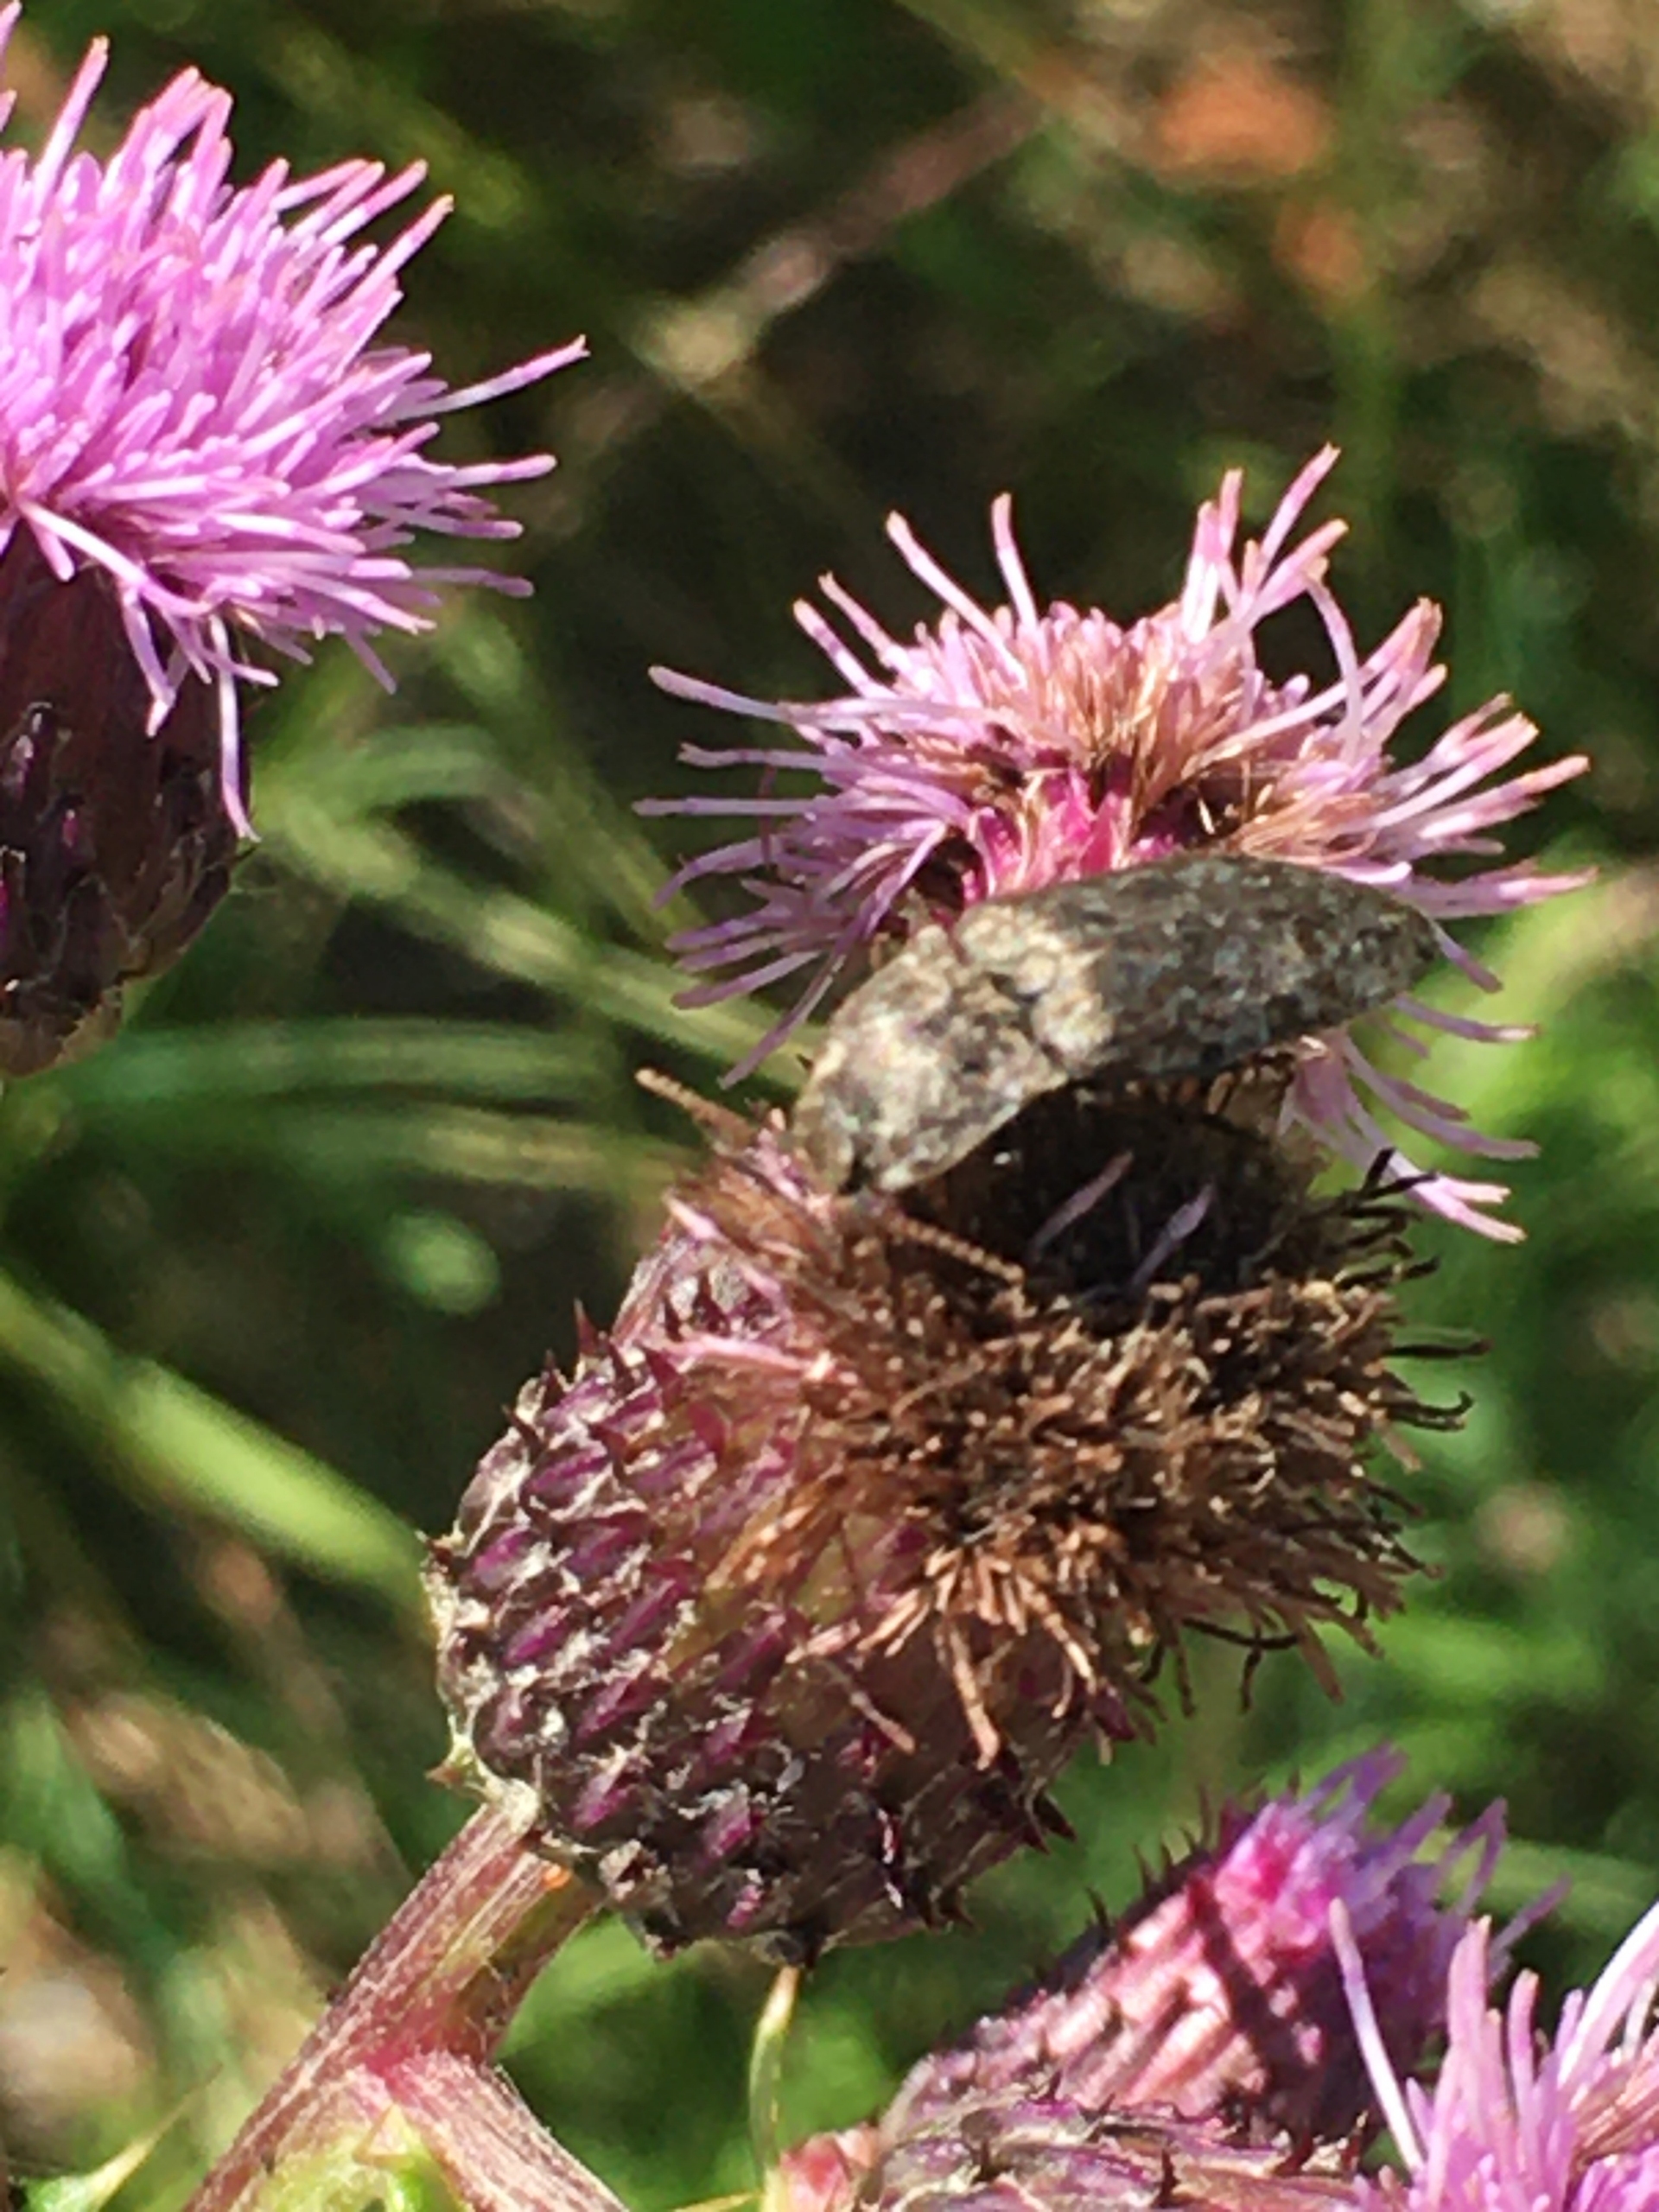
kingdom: Animalia
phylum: Arthropoda
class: Insecta
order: Coleoptera
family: Elateridae
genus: Agrypnus
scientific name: Agrypnus murinus
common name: Musegrå smælder
